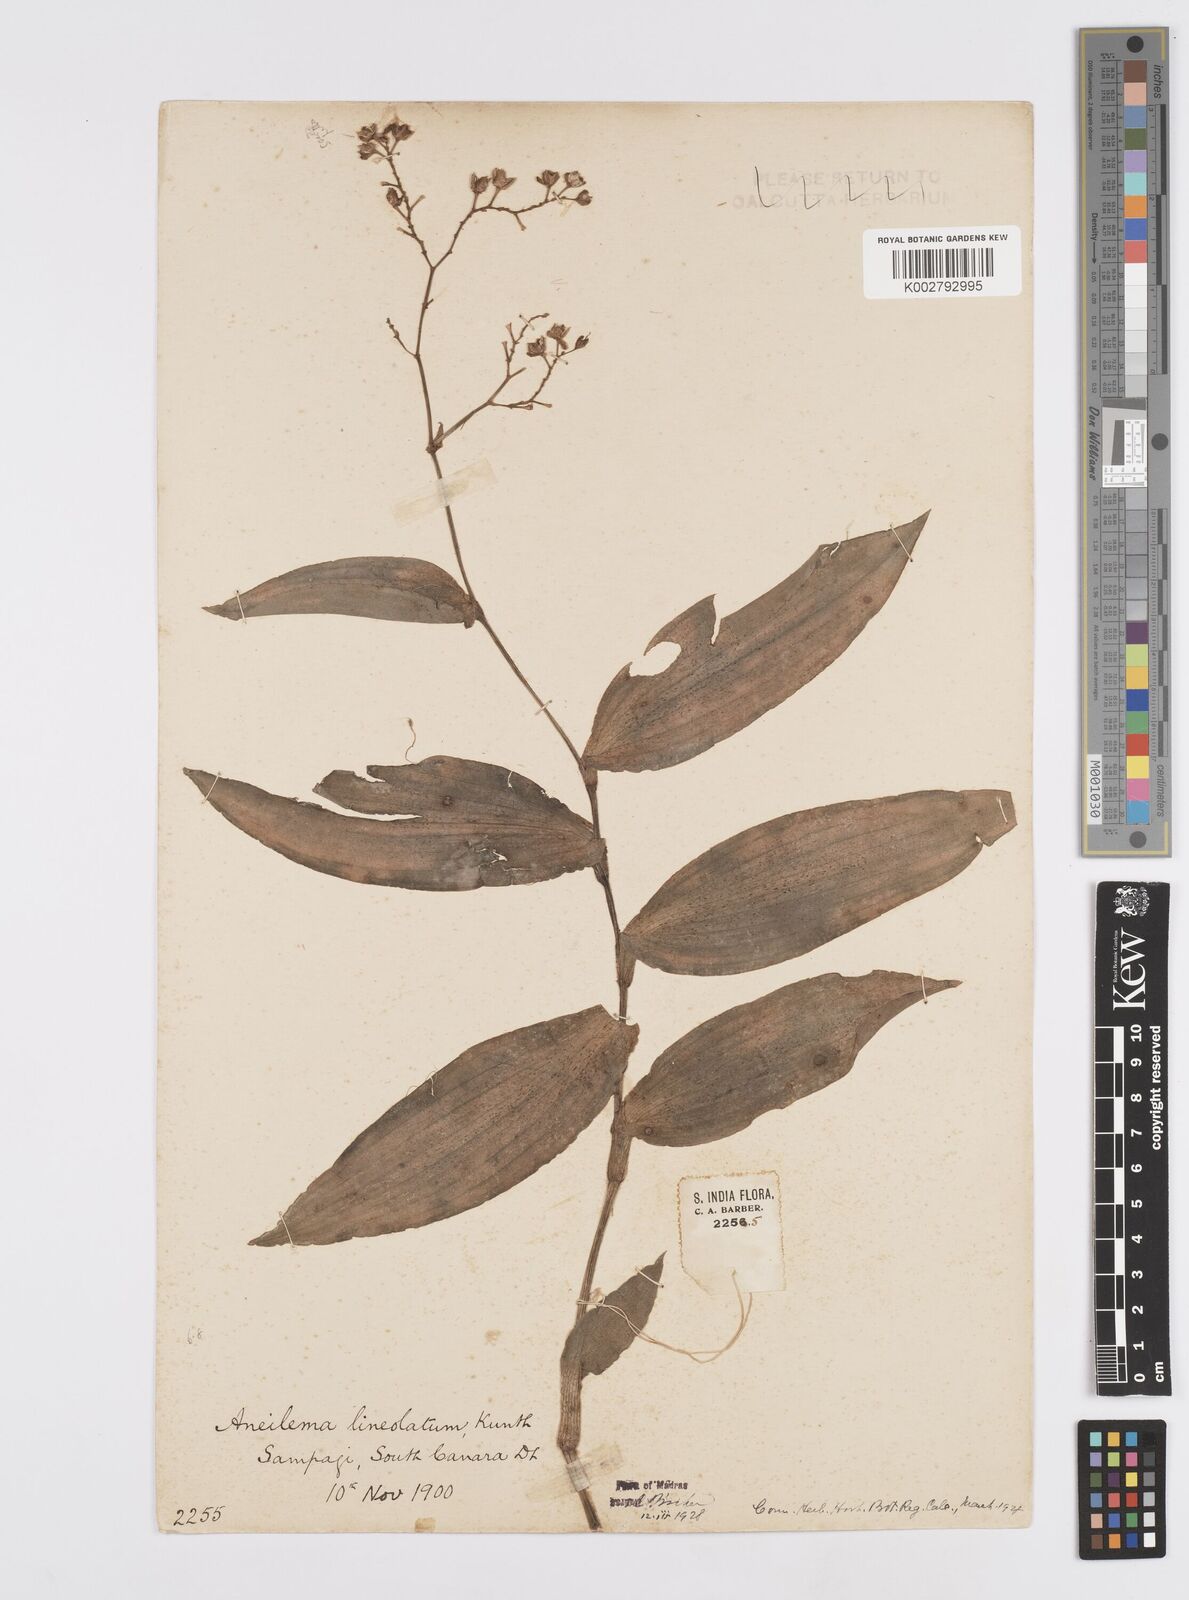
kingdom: Plantae
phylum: Tracheophyta
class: Liliopsida
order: Commelinales
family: Commelinaceae
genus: Murdannia
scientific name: Murdannia
